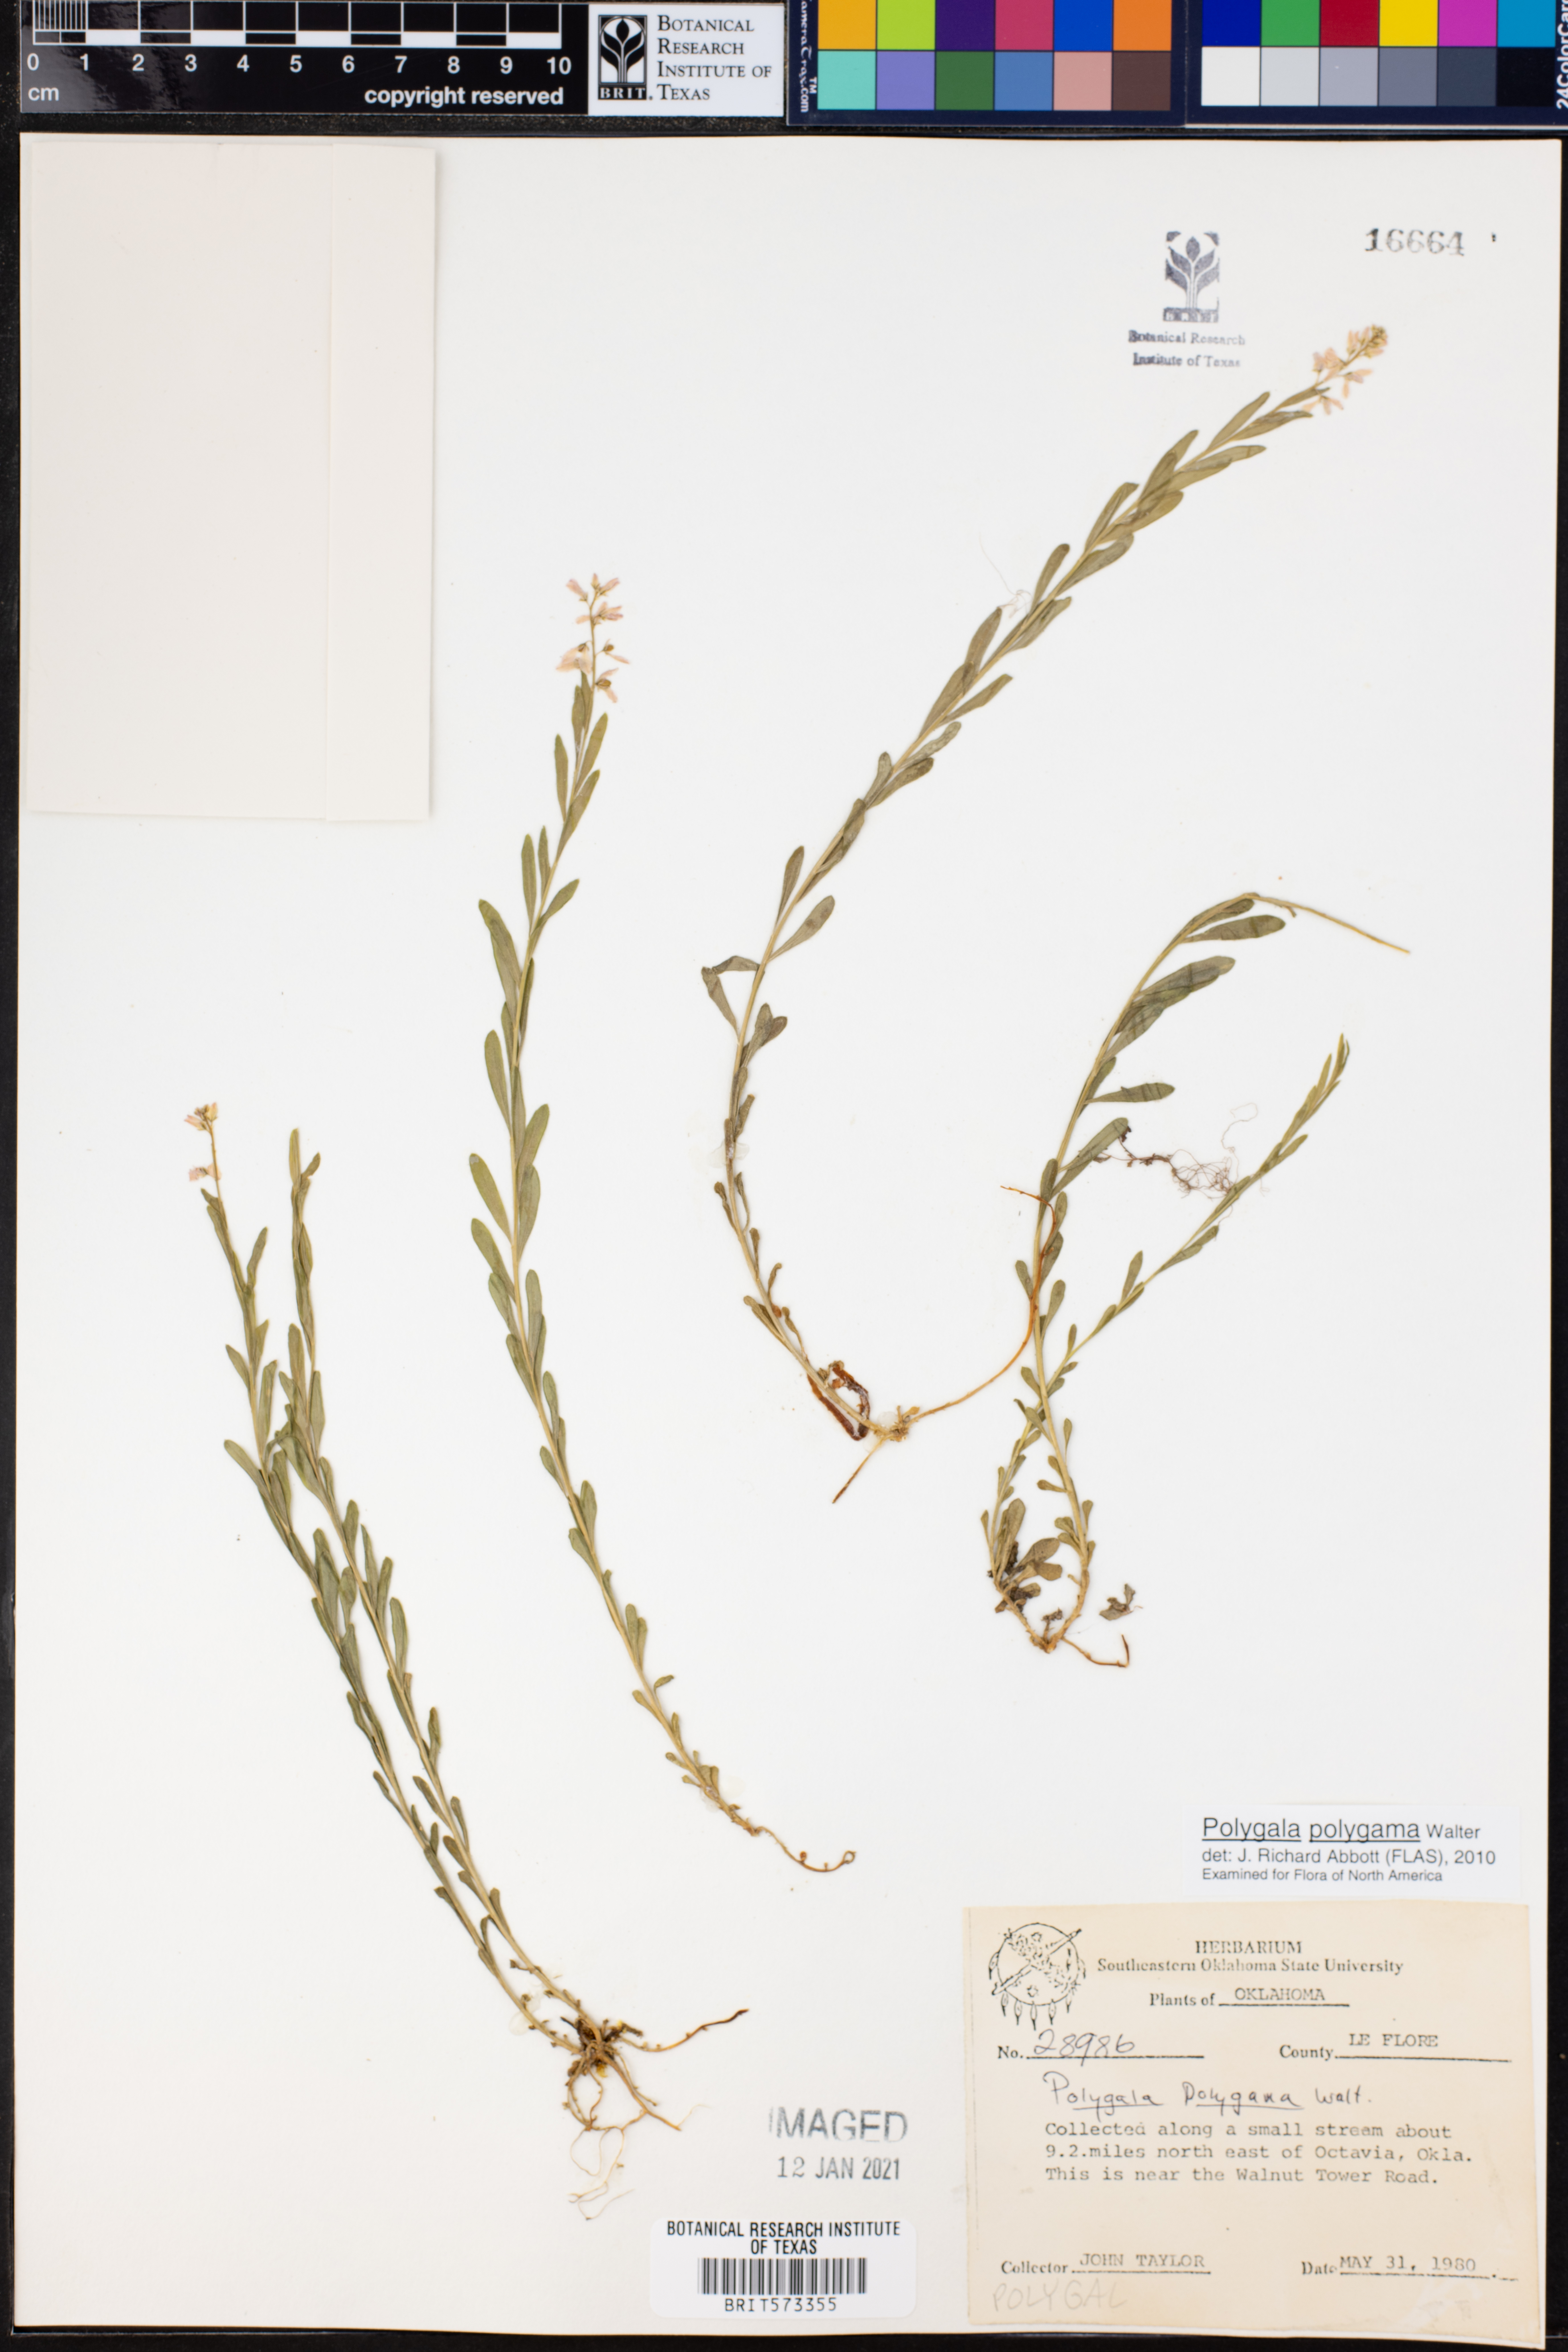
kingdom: Plantae
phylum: Tracheophyta
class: Magnoliopsida
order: Fabales
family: Polygalaceae
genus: Polygala
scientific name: Polygala polygama
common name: Bitter milkwort
